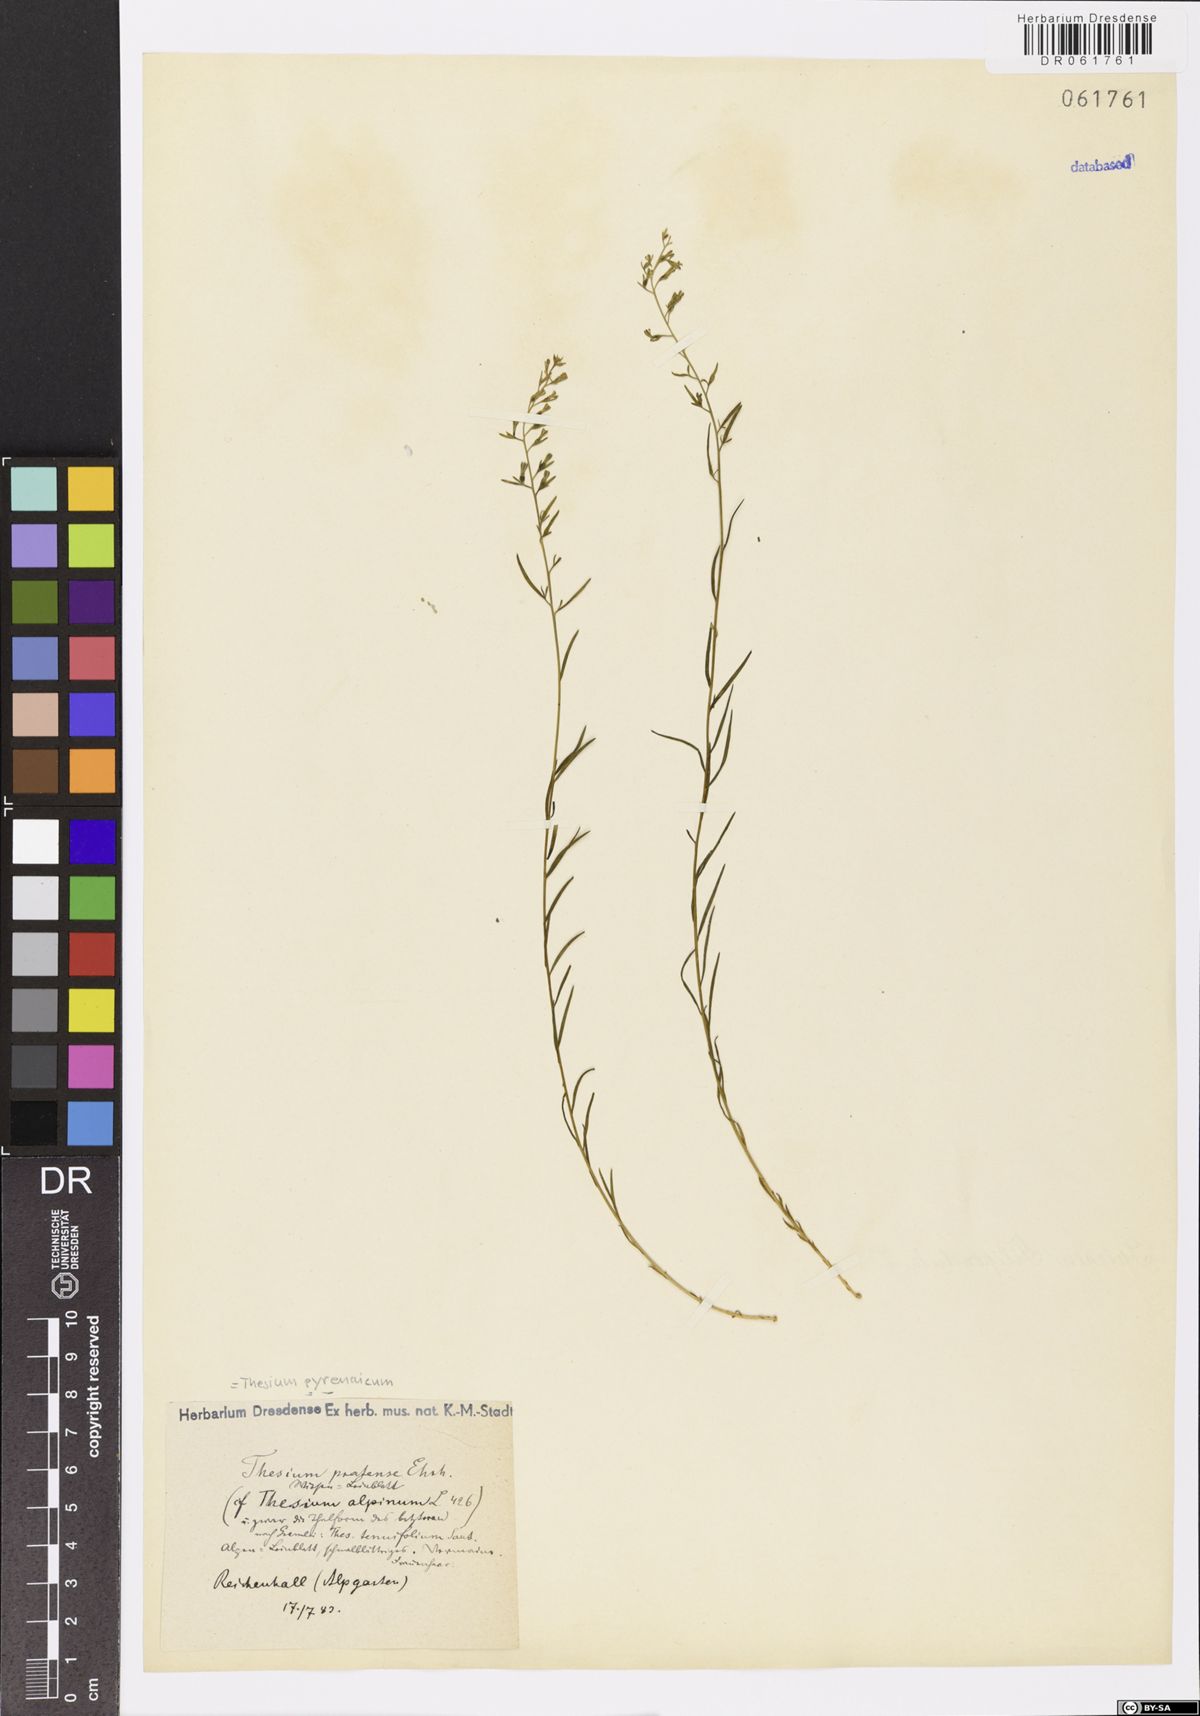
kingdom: Plantae
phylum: Tracheophyta
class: Magnoliopsida
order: Santalales
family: Thesiaceae
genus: Thesium
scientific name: Thesium pyrenaicum
